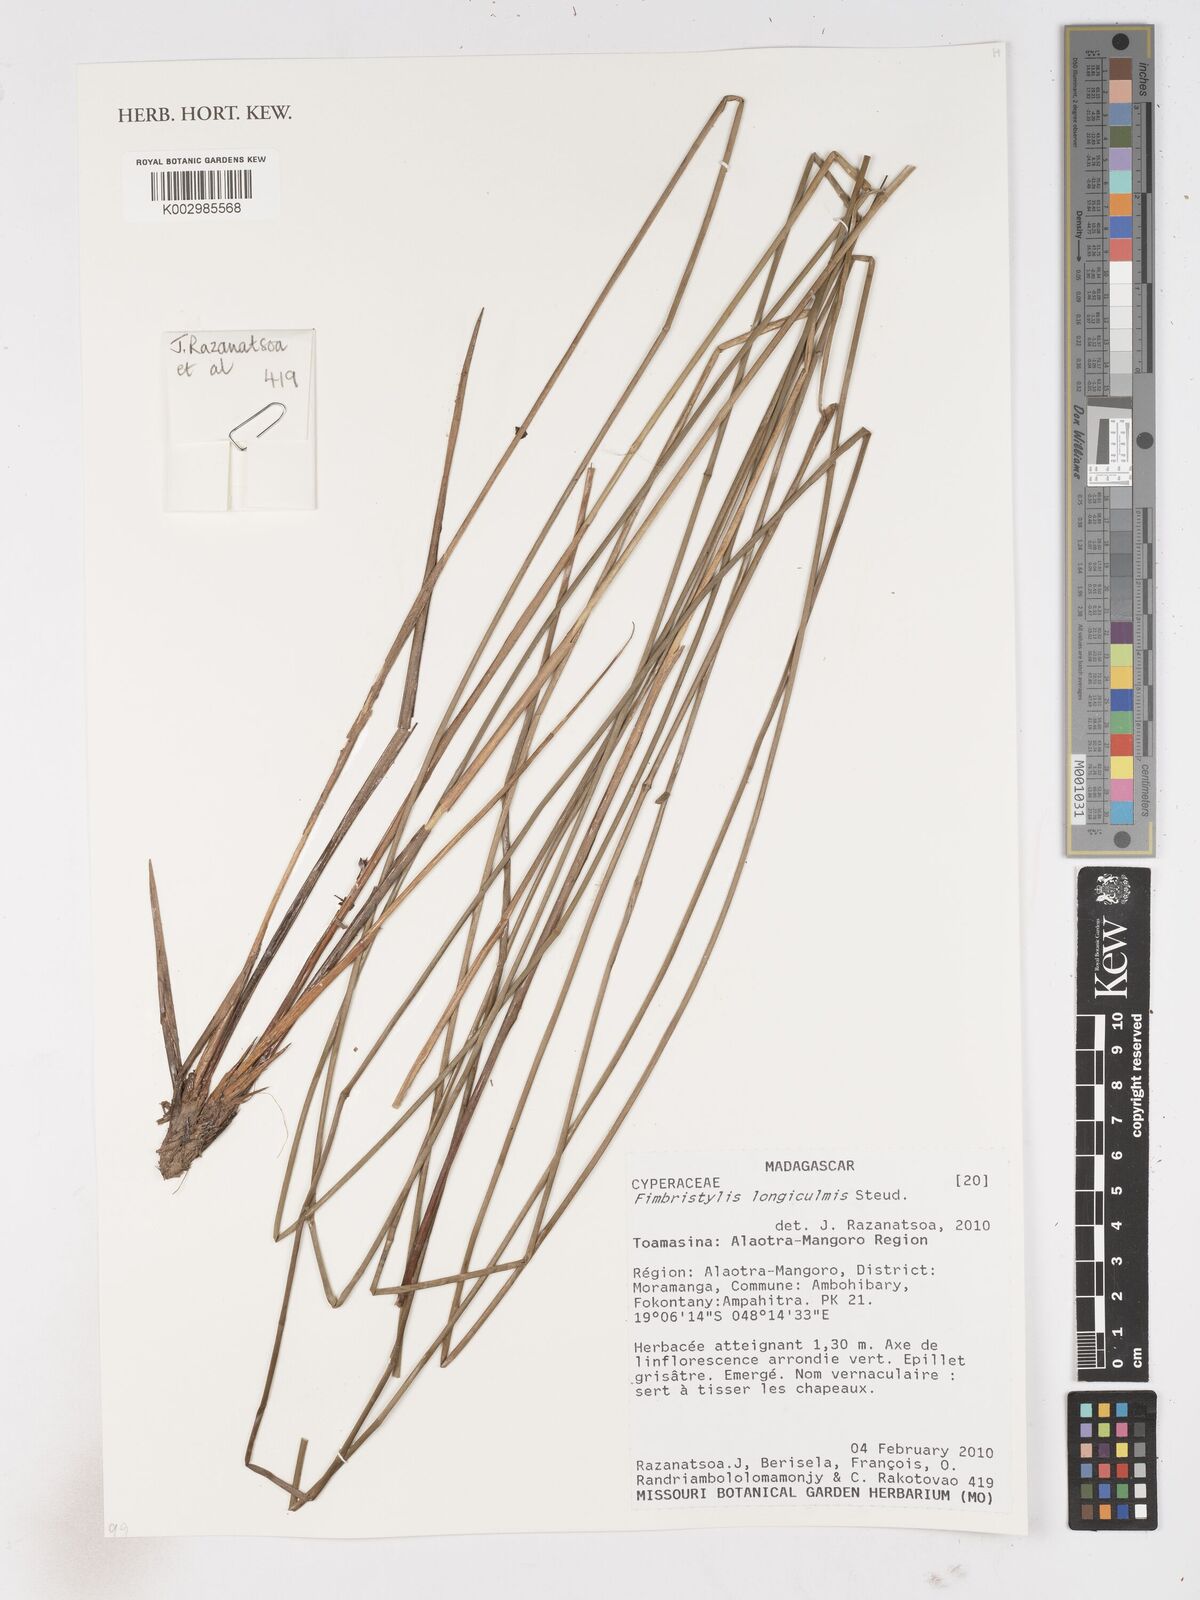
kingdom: Plantae
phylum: Tracheophyta
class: Liliopsida
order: Poales
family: Cyperaceae
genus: Fimbristylis
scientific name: Fimbristylis bivalvis
